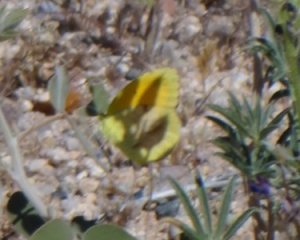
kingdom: Animalia
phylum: Arthropoda
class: Insecta
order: Lepidoptera
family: Pieridae
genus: Abaeis
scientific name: Abaeis nicippe
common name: Sleepy Orange
